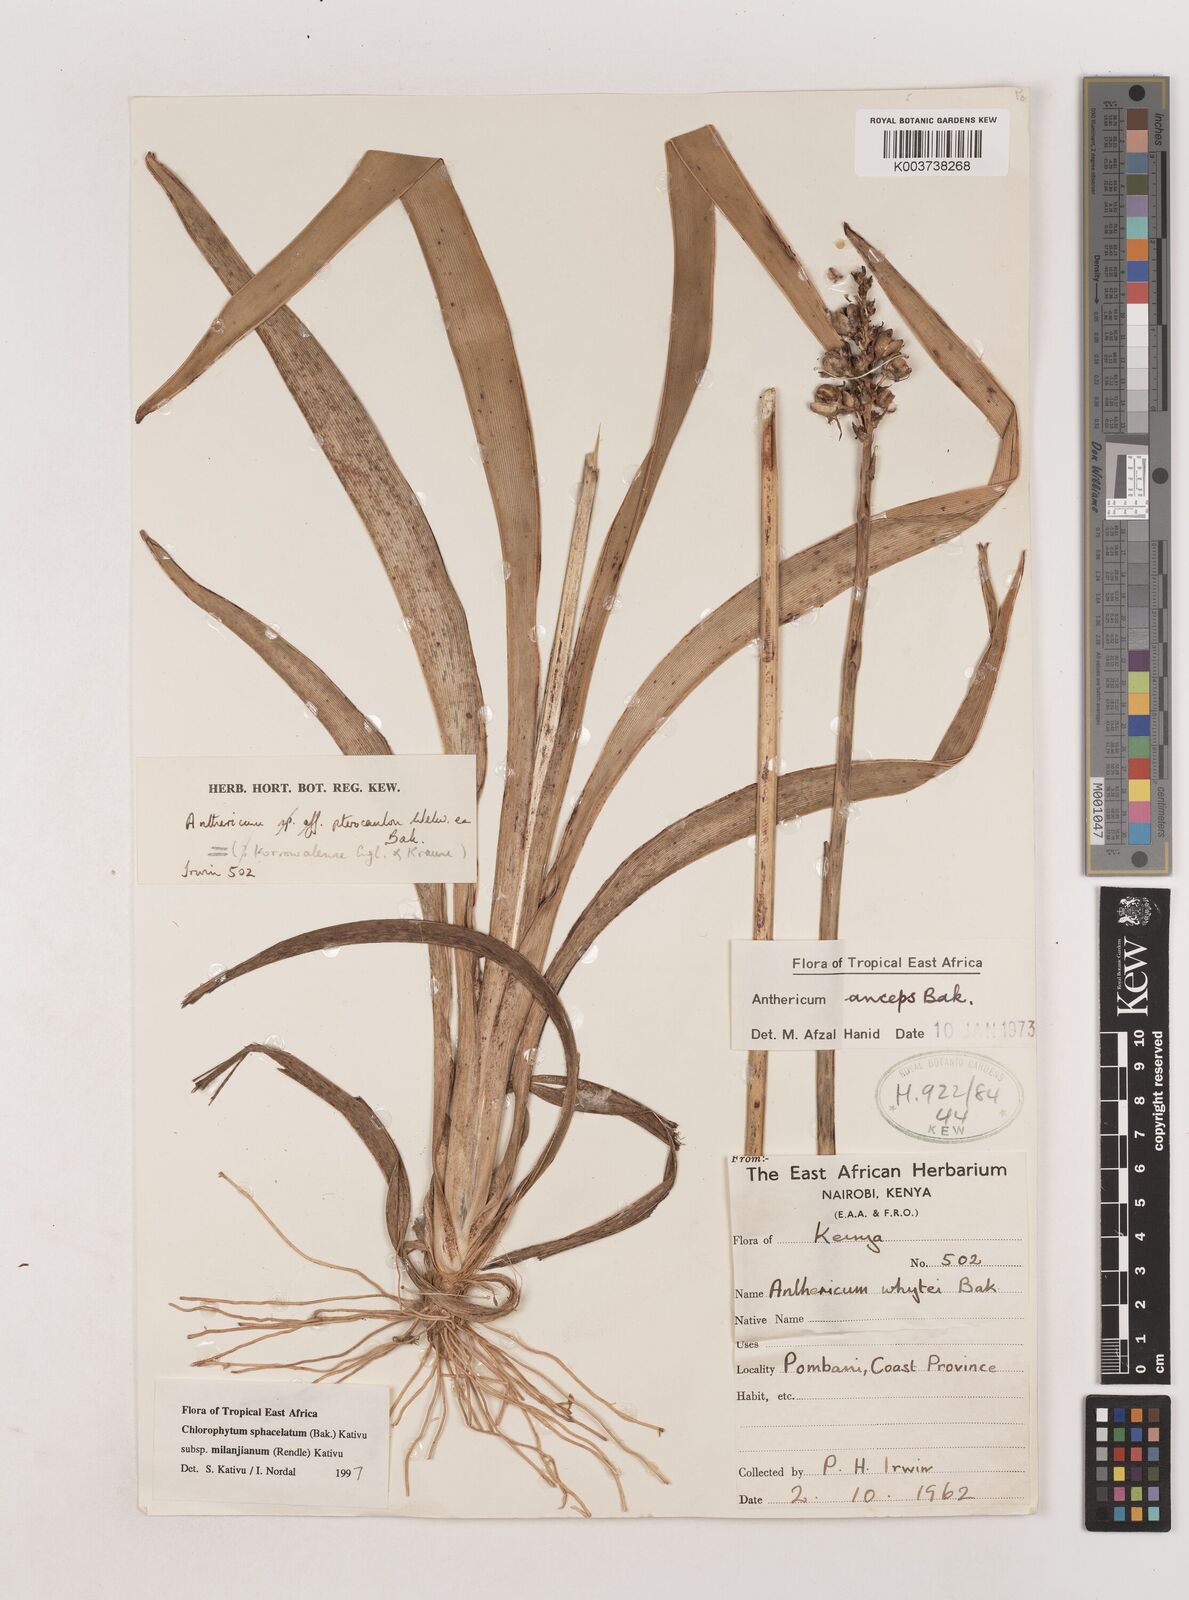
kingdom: Plantae
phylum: Tracheophyta
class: Liliopsida
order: Asparagales
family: Asparagaceae
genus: Chlorophytum
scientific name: Chlorophytum sphacelatum
